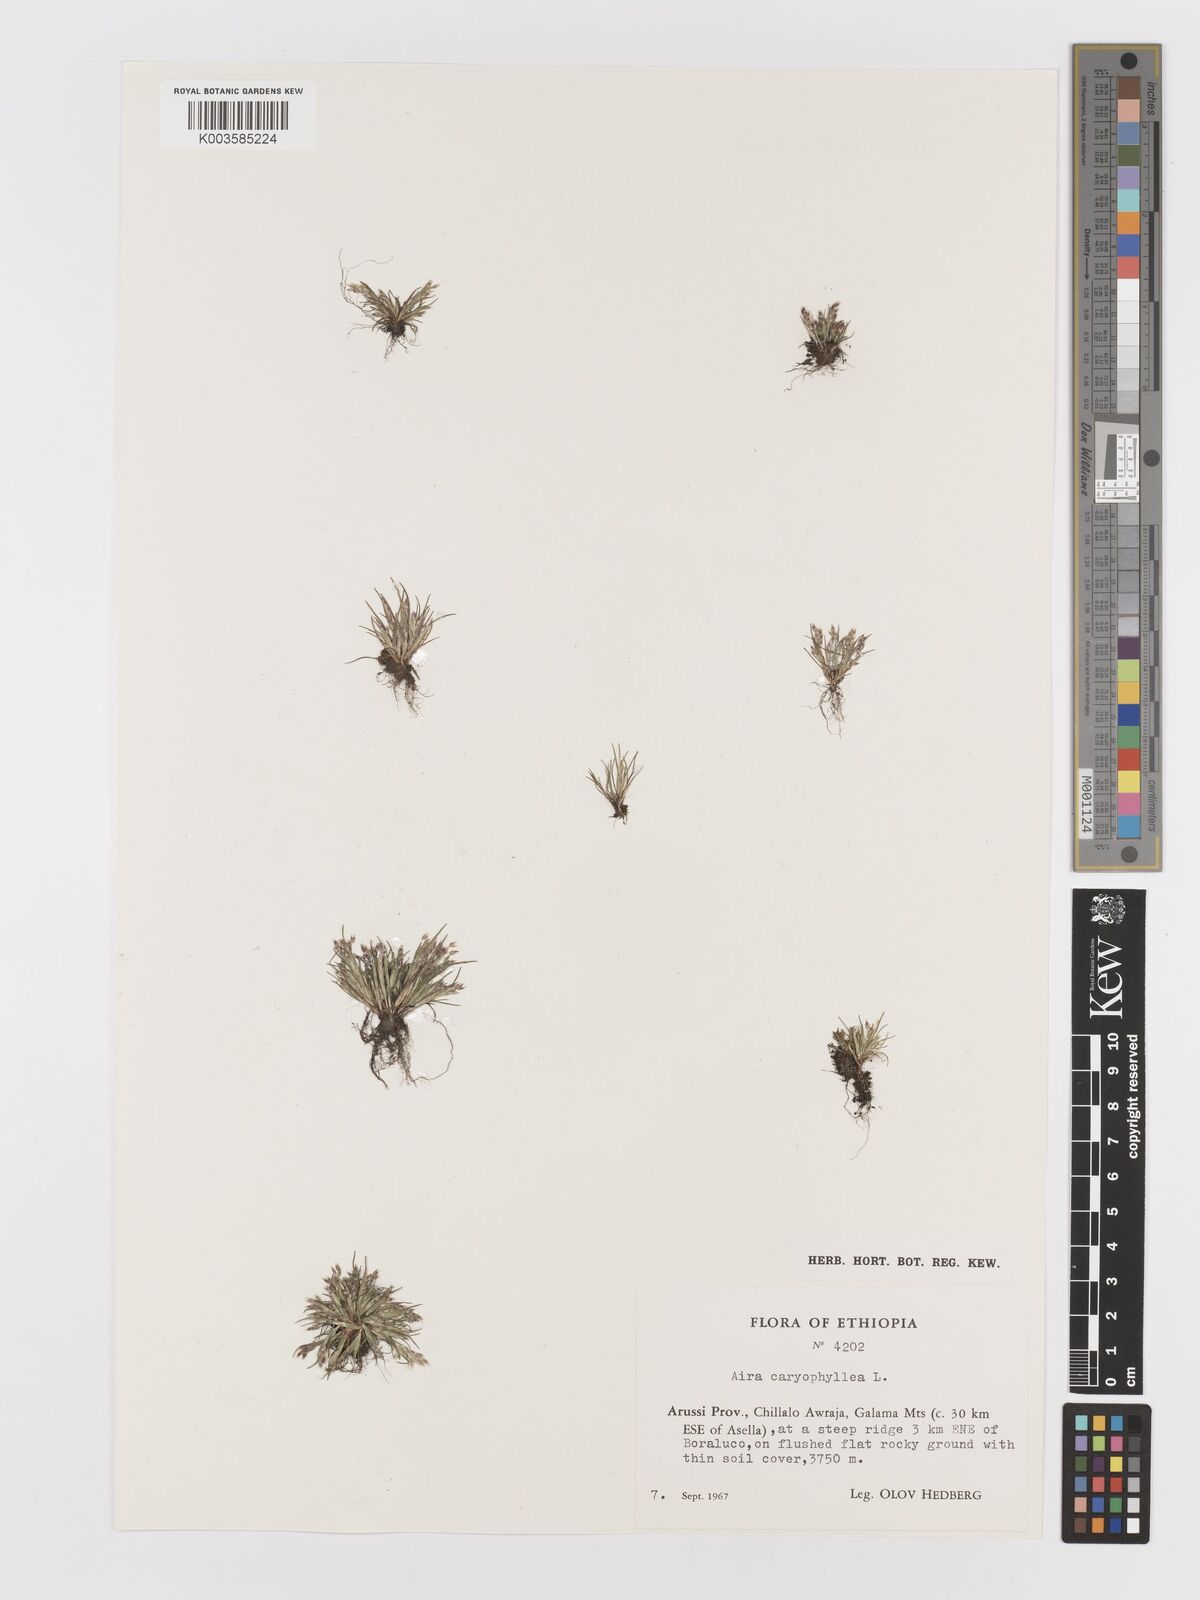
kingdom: Plantae
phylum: Tracheophyta
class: Liliopsida
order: Poales
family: Poaceae
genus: Aira
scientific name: Aira caryophyllea
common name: Silver hairgrass
